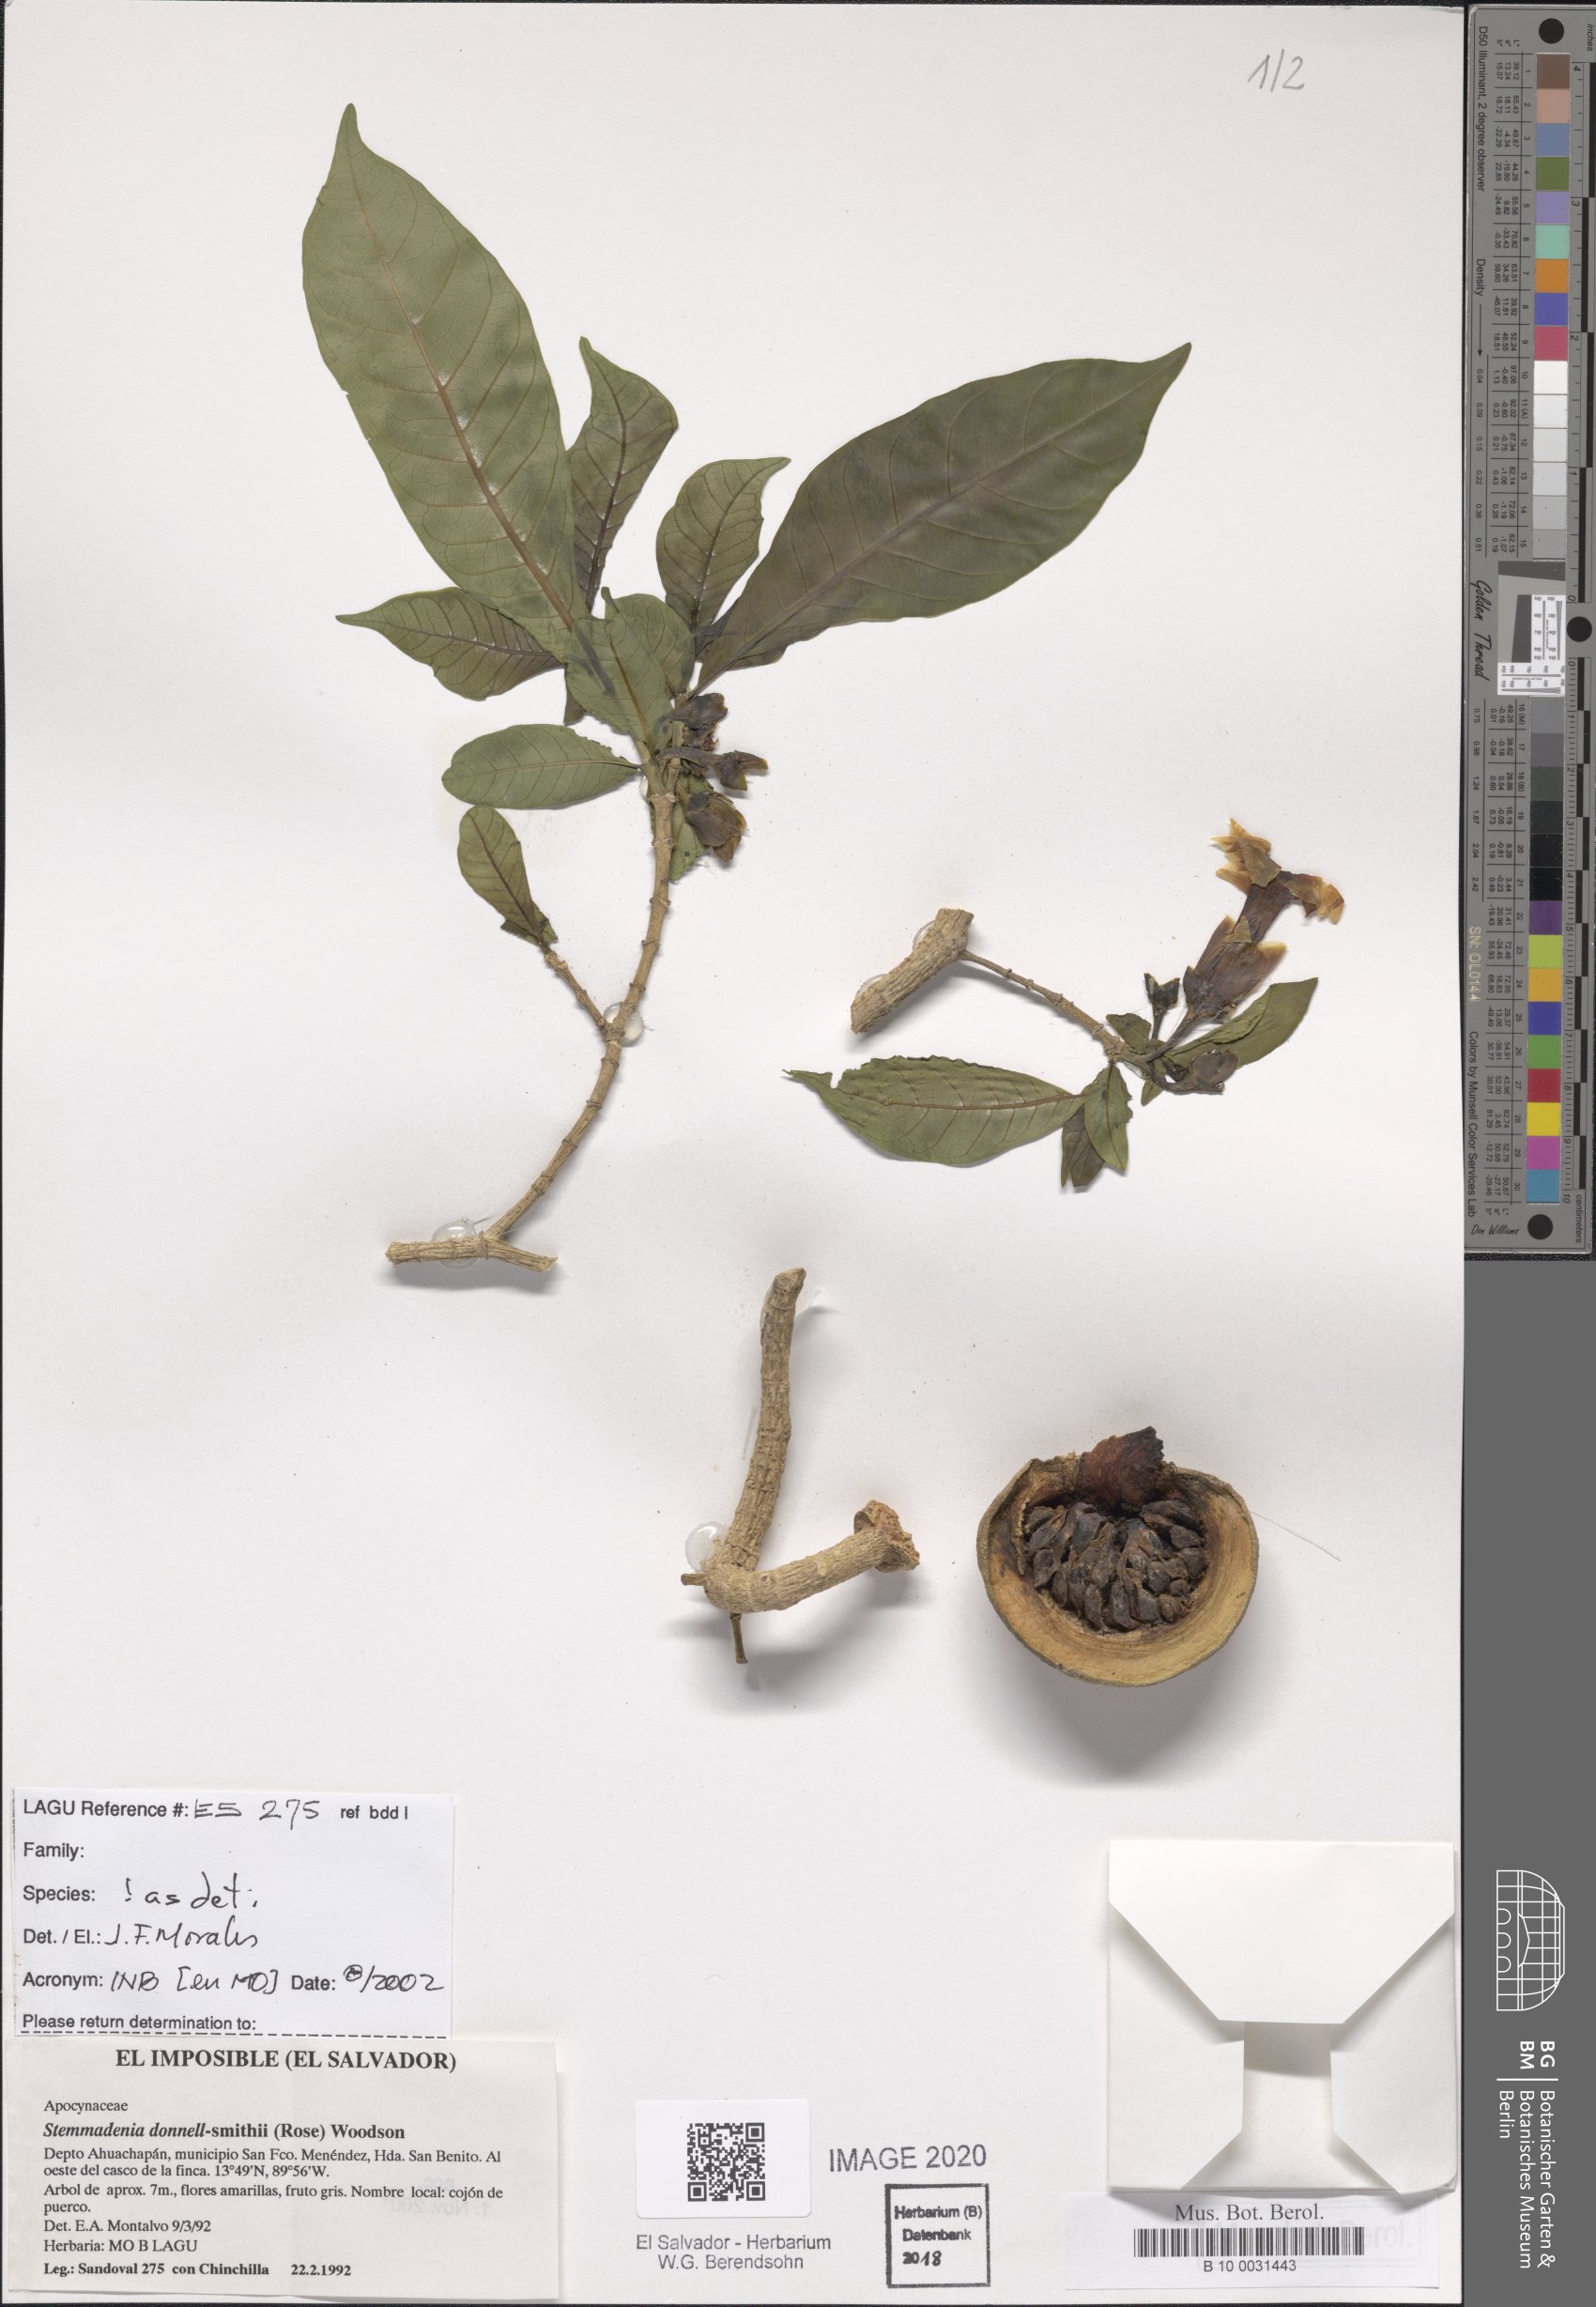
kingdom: Plantae
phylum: Tracheophyta
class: Magnoliopsida
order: Gentianales
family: Apocynaceae
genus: Tabernaemontana
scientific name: Tabernaemontana donnell-smithii
